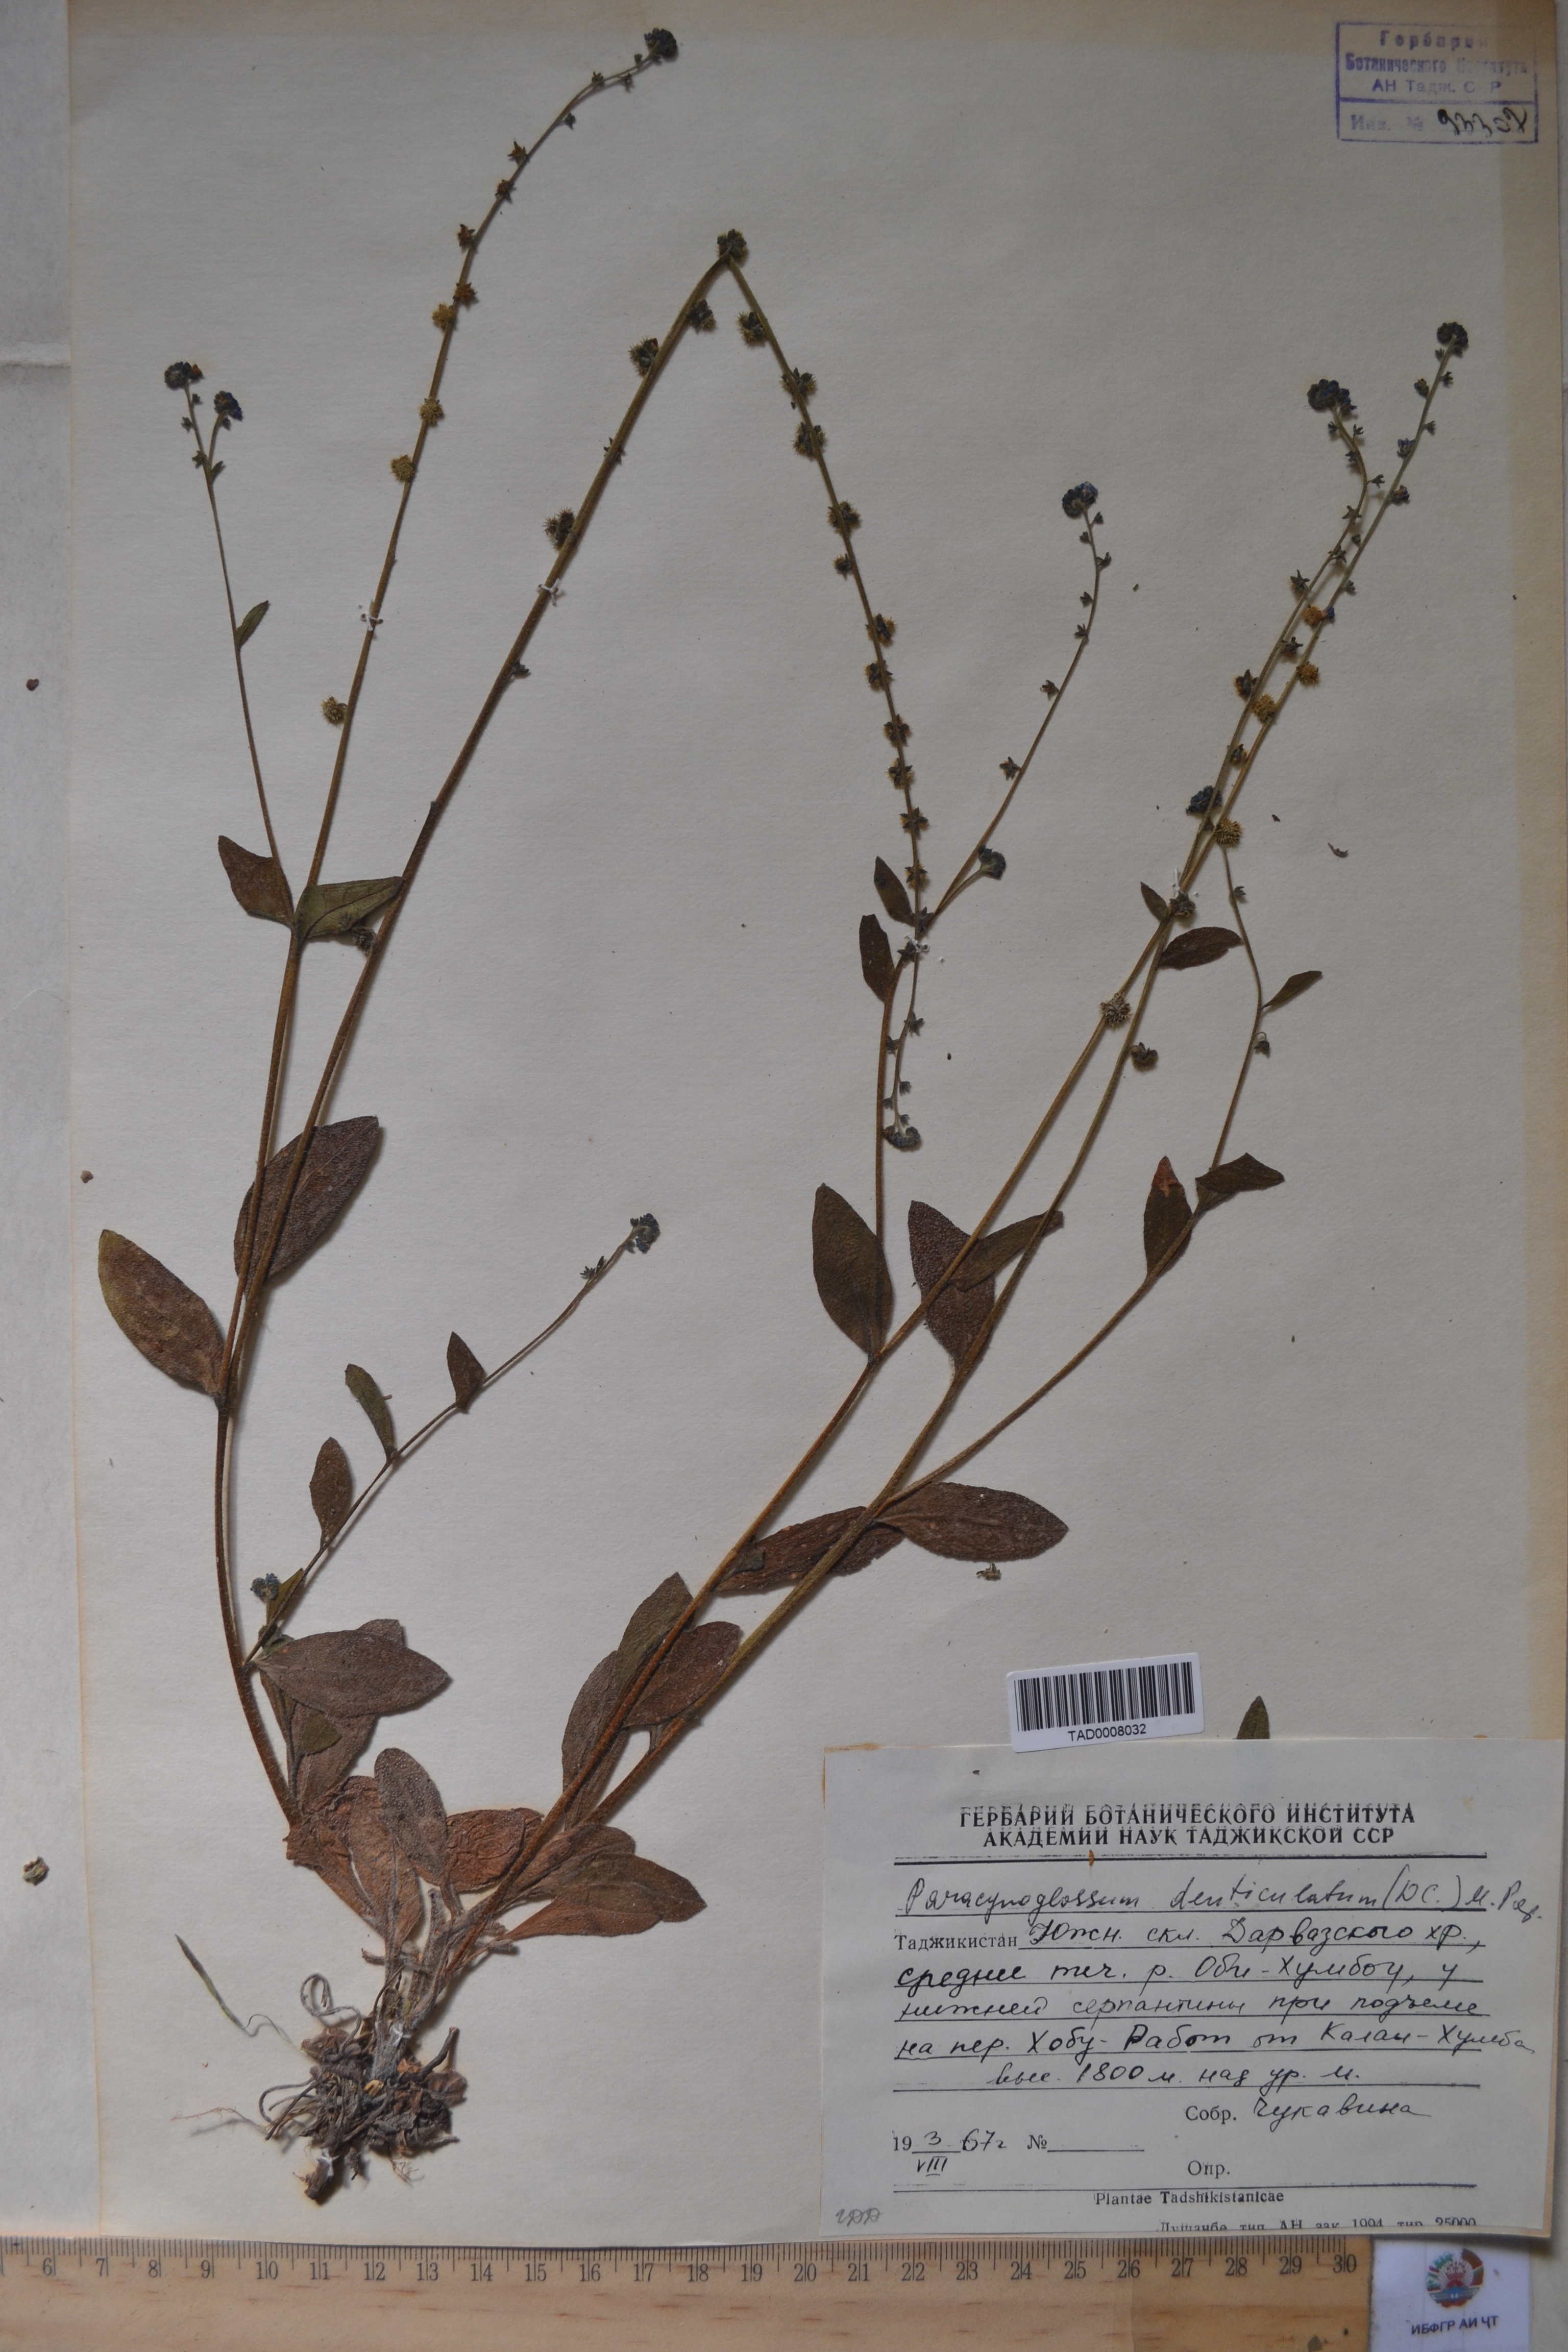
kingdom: Plantae
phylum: Tracheophyta
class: Magnoliopsida
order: Boraginales
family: Boraginaceae
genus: Paracynoglossum
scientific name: Paracynoglossum glochidiatum
